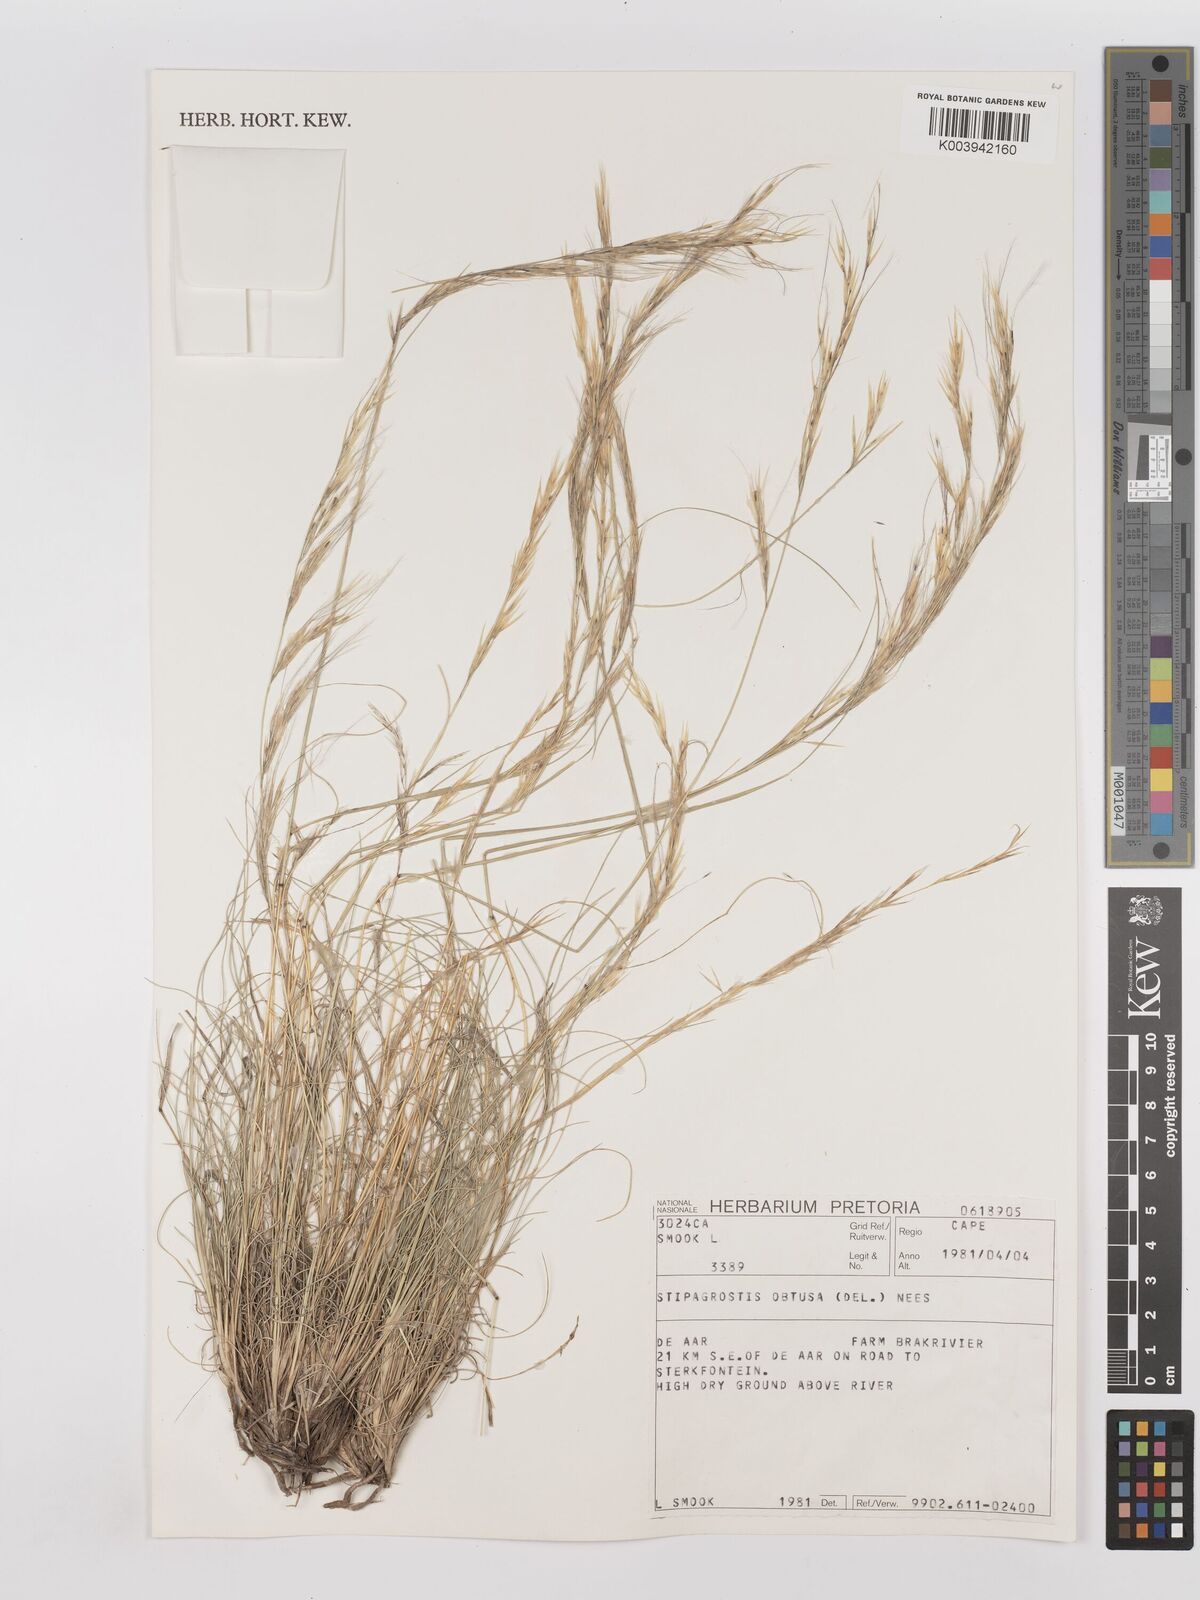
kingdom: Plantae
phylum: Tracheophyta
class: Liliopsida
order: Poales
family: Poaceae
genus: Stipagrostis
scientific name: Stipagrostis obtusa
